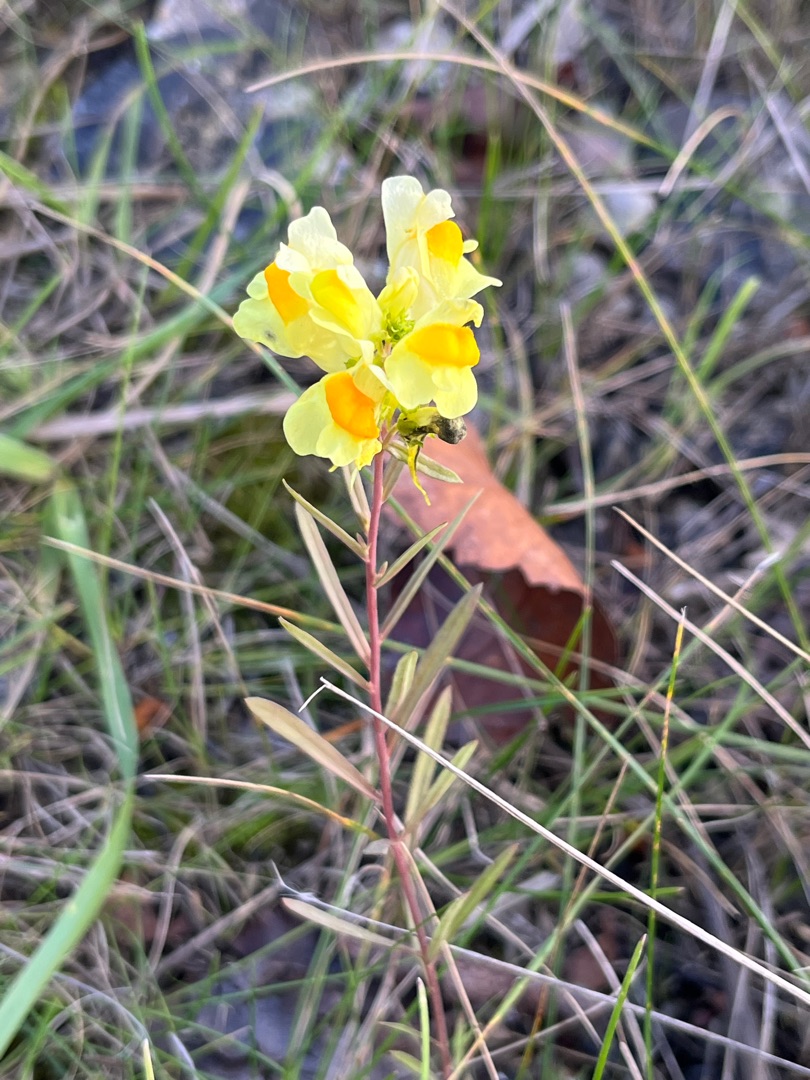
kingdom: Plantae
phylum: Tracheophyta
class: Magnoliopsida
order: Lamiales
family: Plantaginaceae
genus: Linaria
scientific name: Linaria vulgaris
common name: Almindelig torskemund
